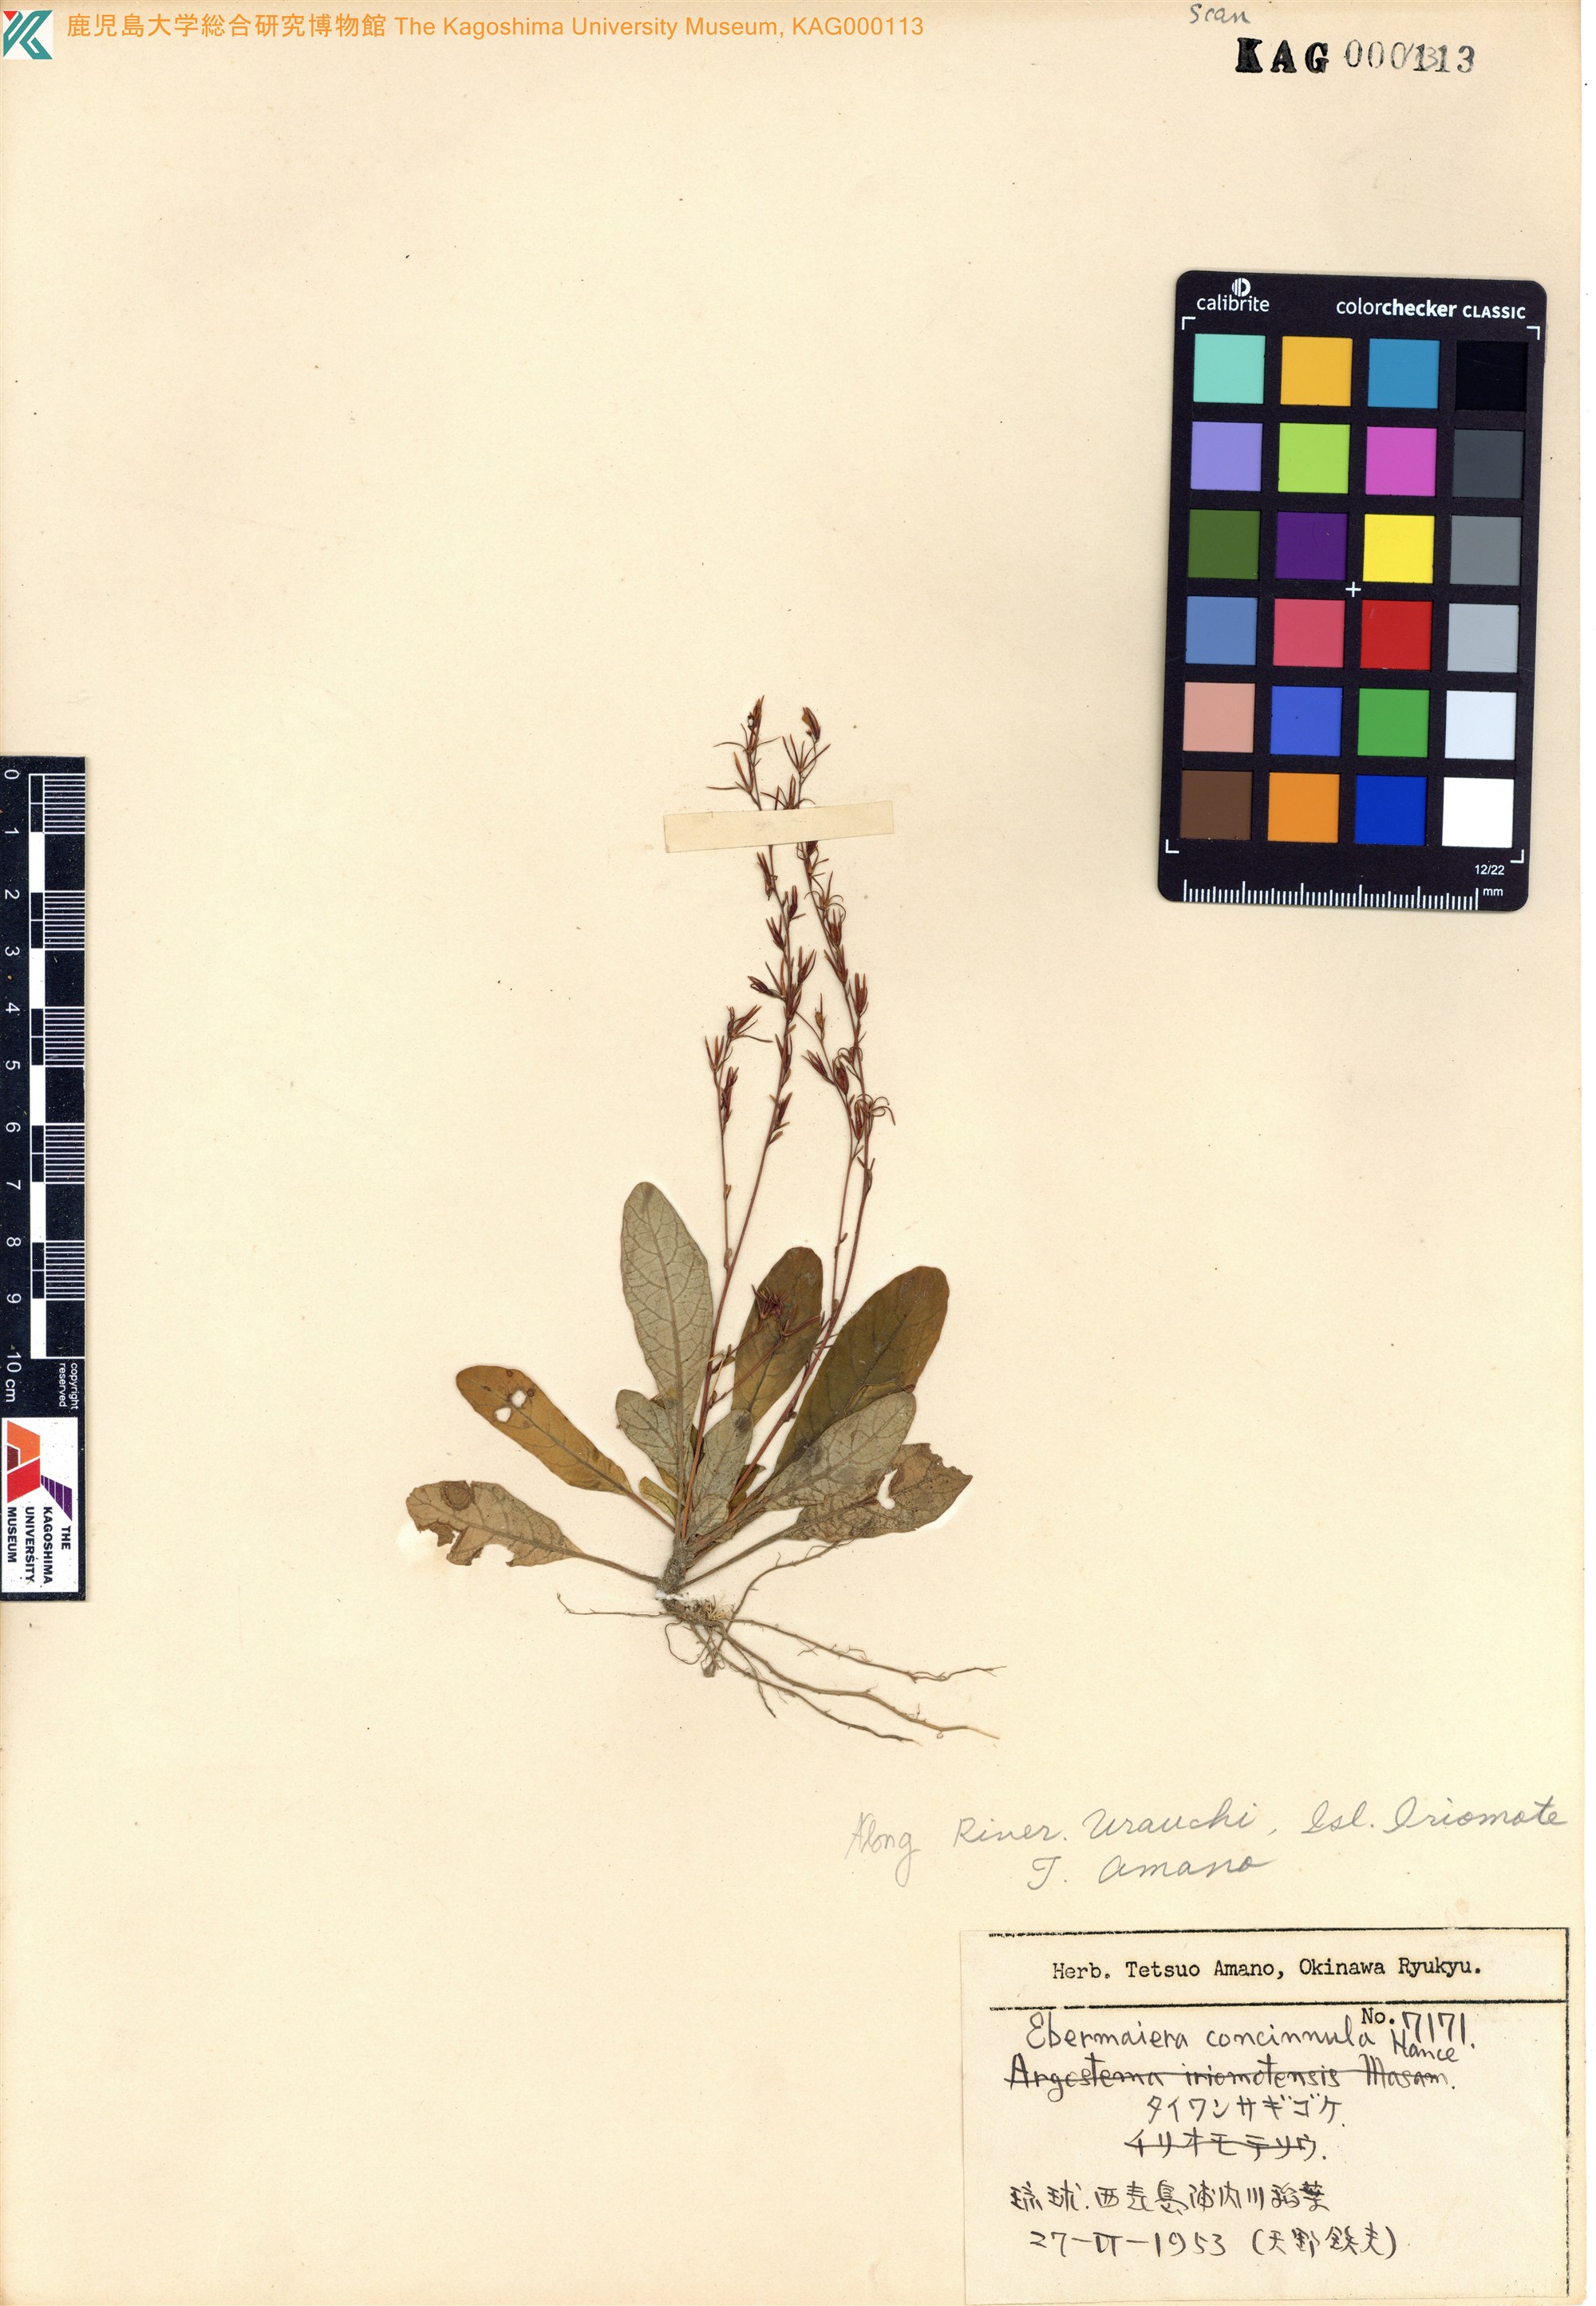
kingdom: Plantae
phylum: Tracheophyta
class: Magnoliopsida
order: Lamiales
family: Acanthaceae
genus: Staurogyne
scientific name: Staurogyne concinnula
